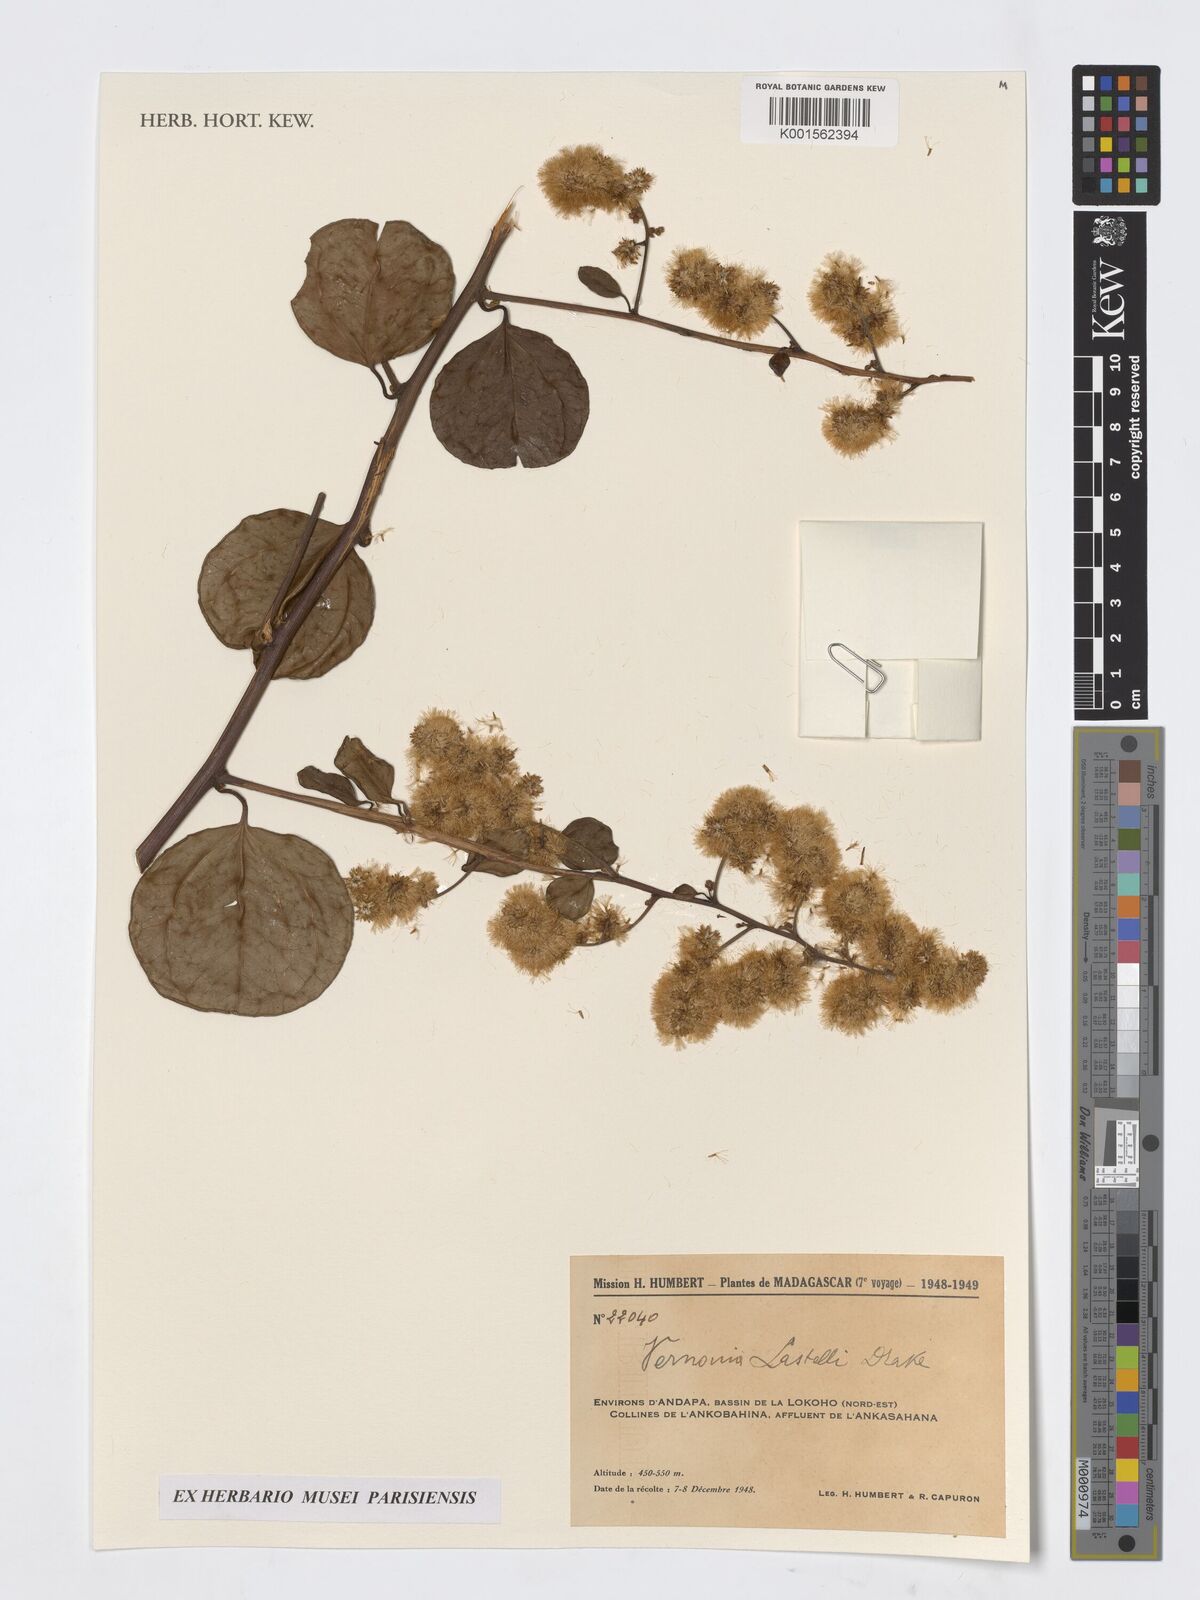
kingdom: Plantae
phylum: Tracheophyta
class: Magnoliopsida
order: Asterales
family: Asteraceae
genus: Vernonia
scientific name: Vernonia
